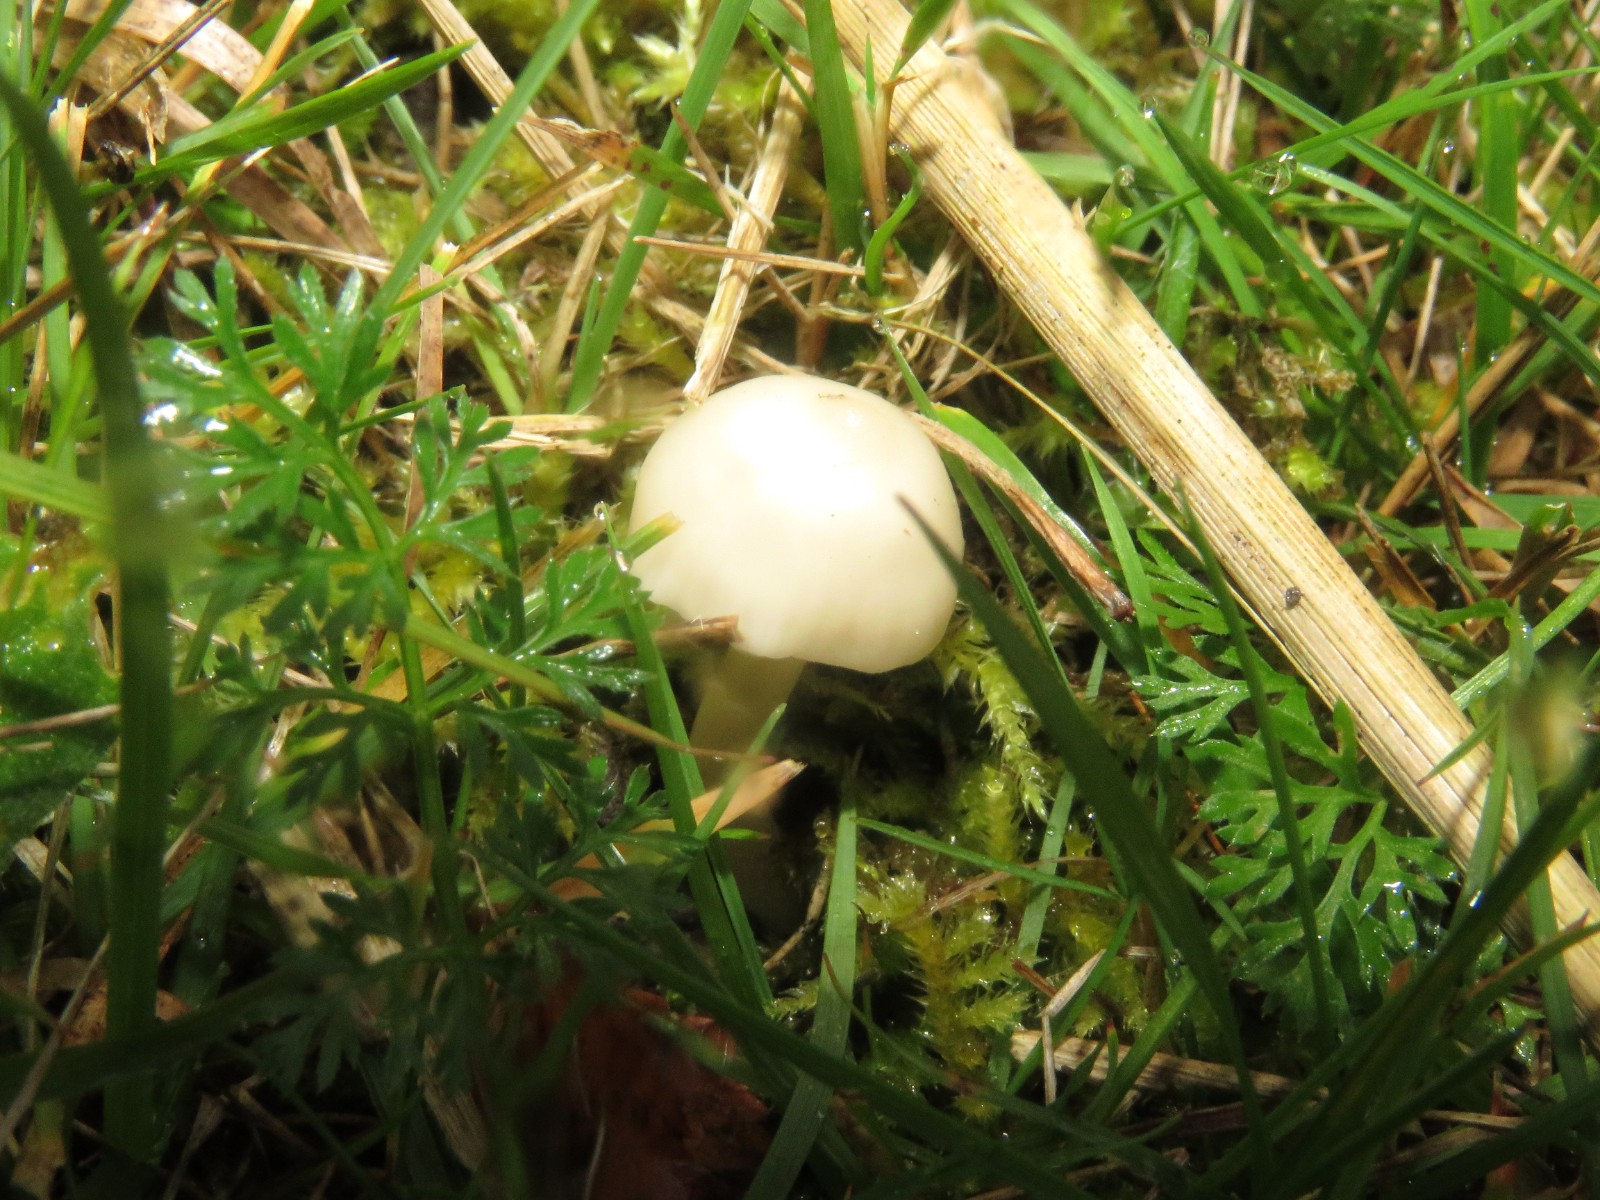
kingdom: Fungi
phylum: Basidiomycota
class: Agaricomycetes
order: Agaricales
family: Hygrophoraceae
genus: Cuphophyllus
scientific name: Cuphophyllus
